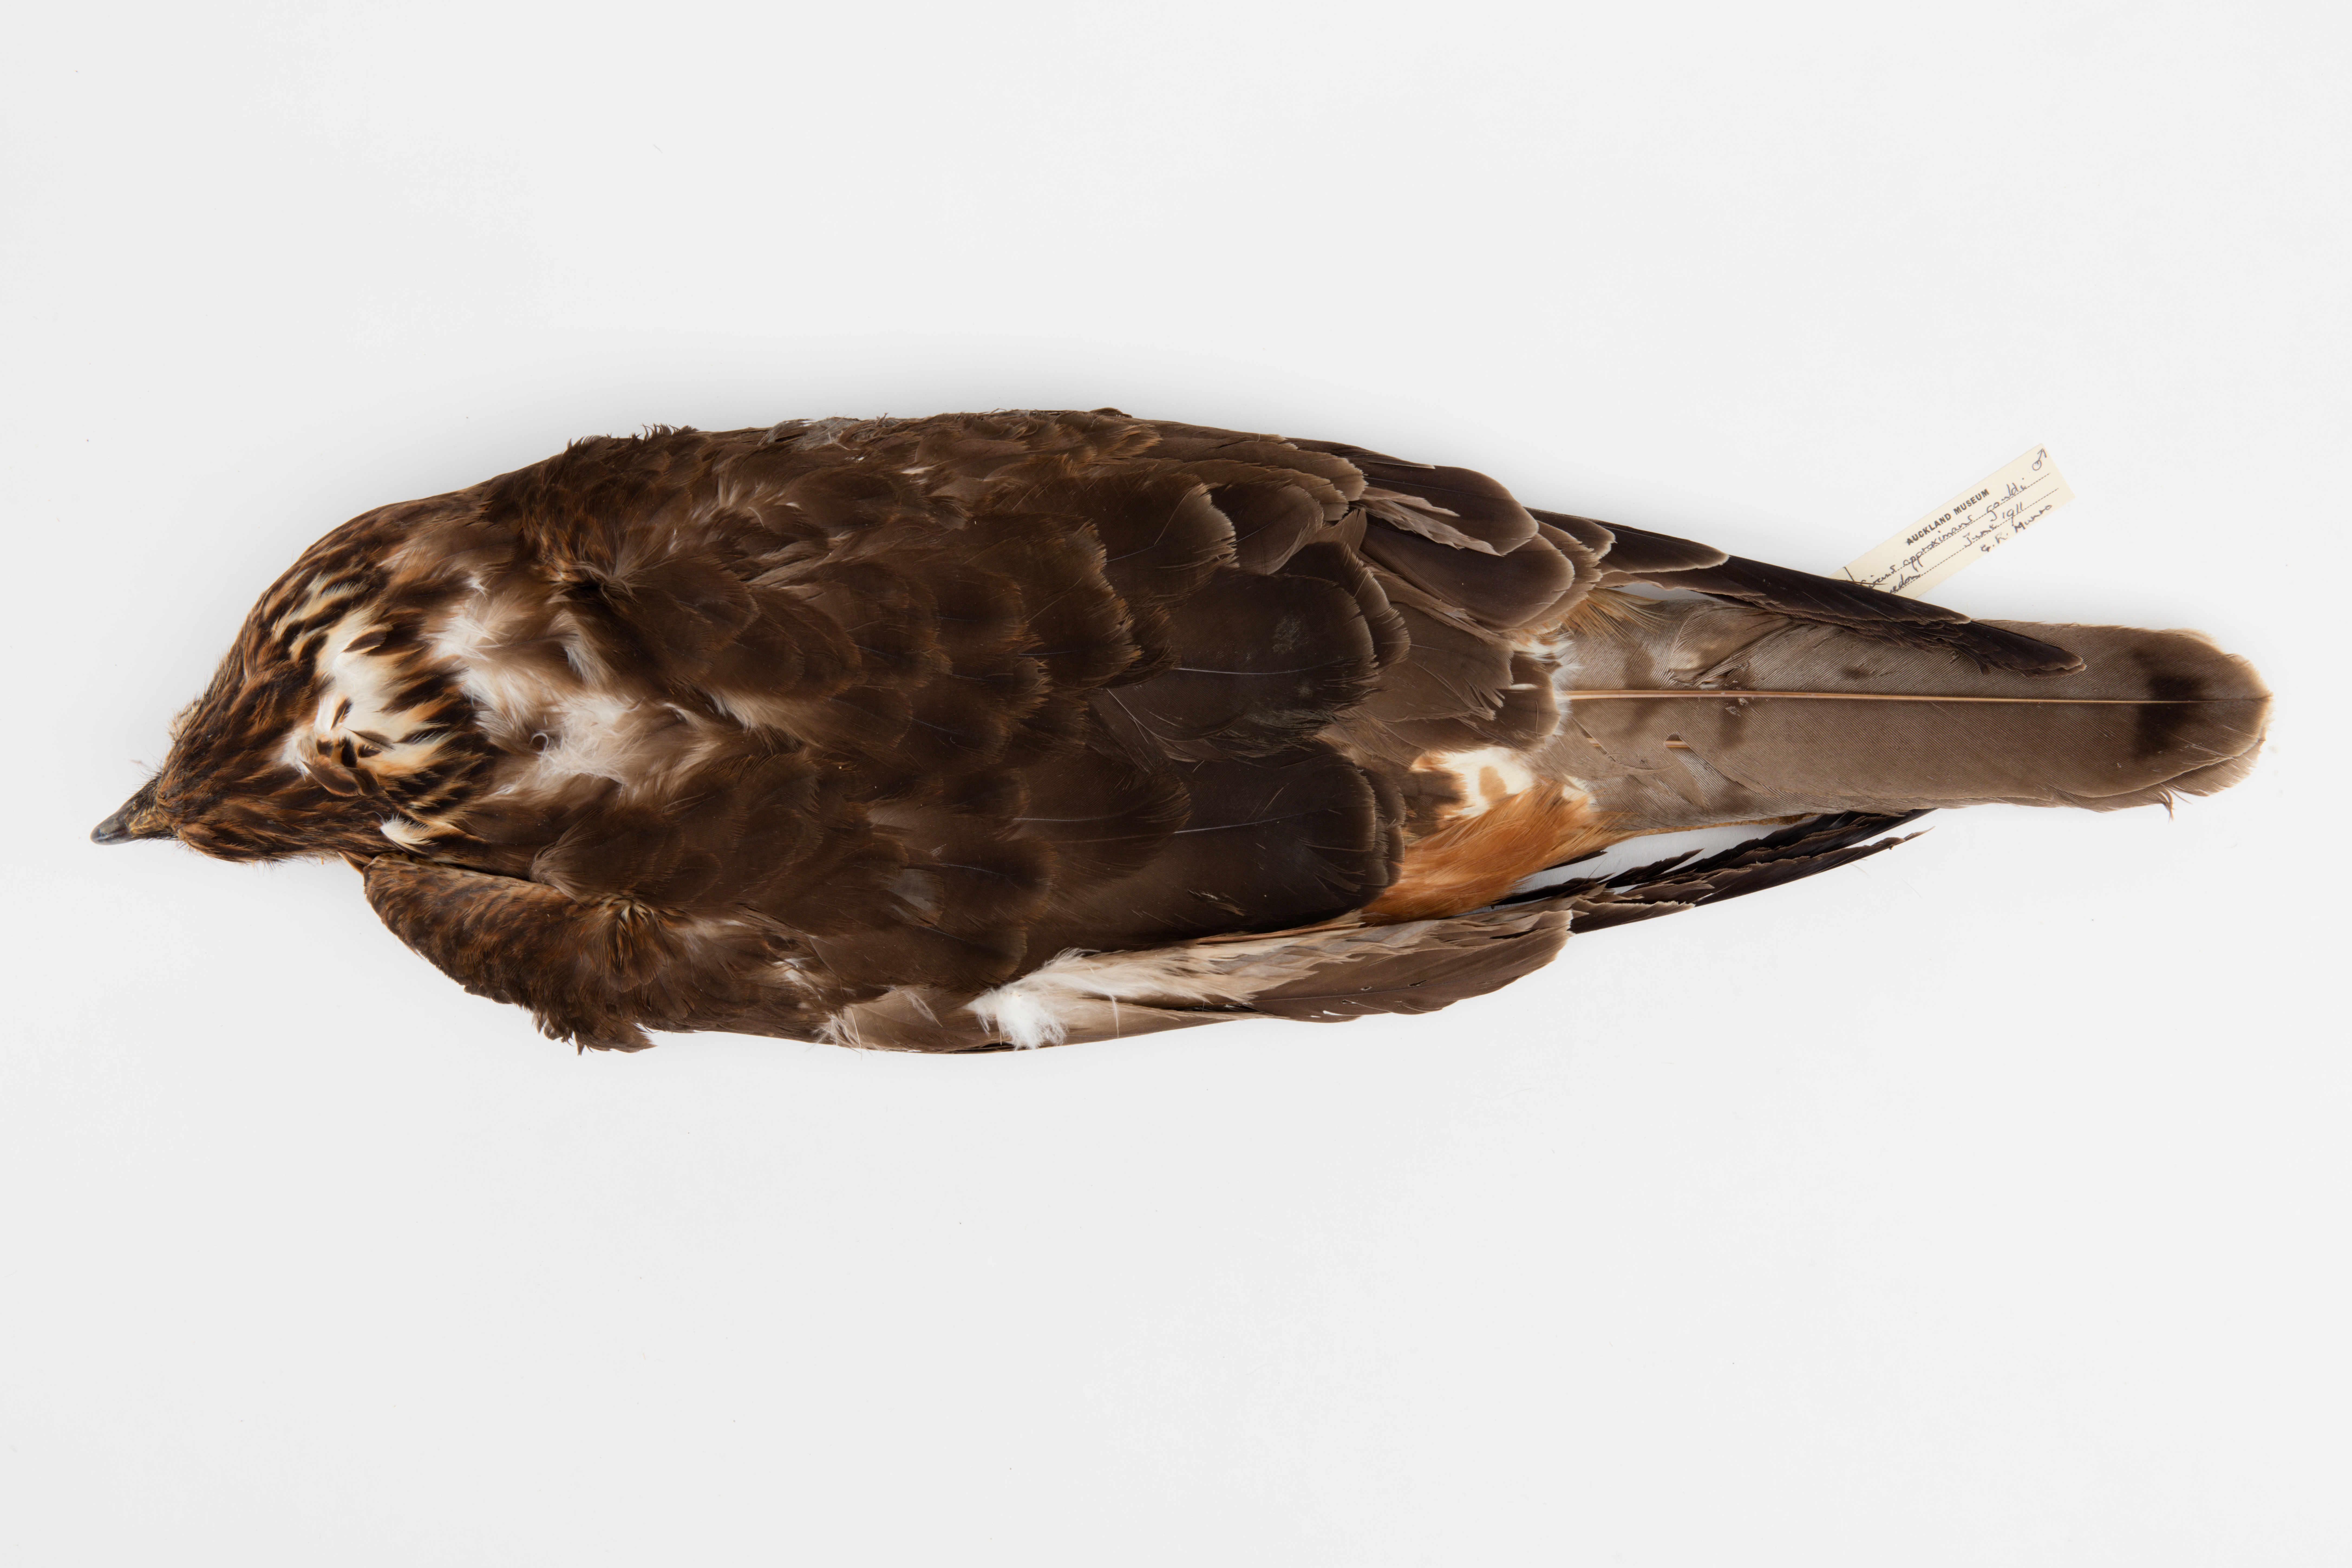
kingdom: Animalia
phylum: Chordata
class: Aves
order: Accipitriformes
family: Accipitridae
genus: Circus
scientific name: Circus approximans
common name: Swamp harrier
